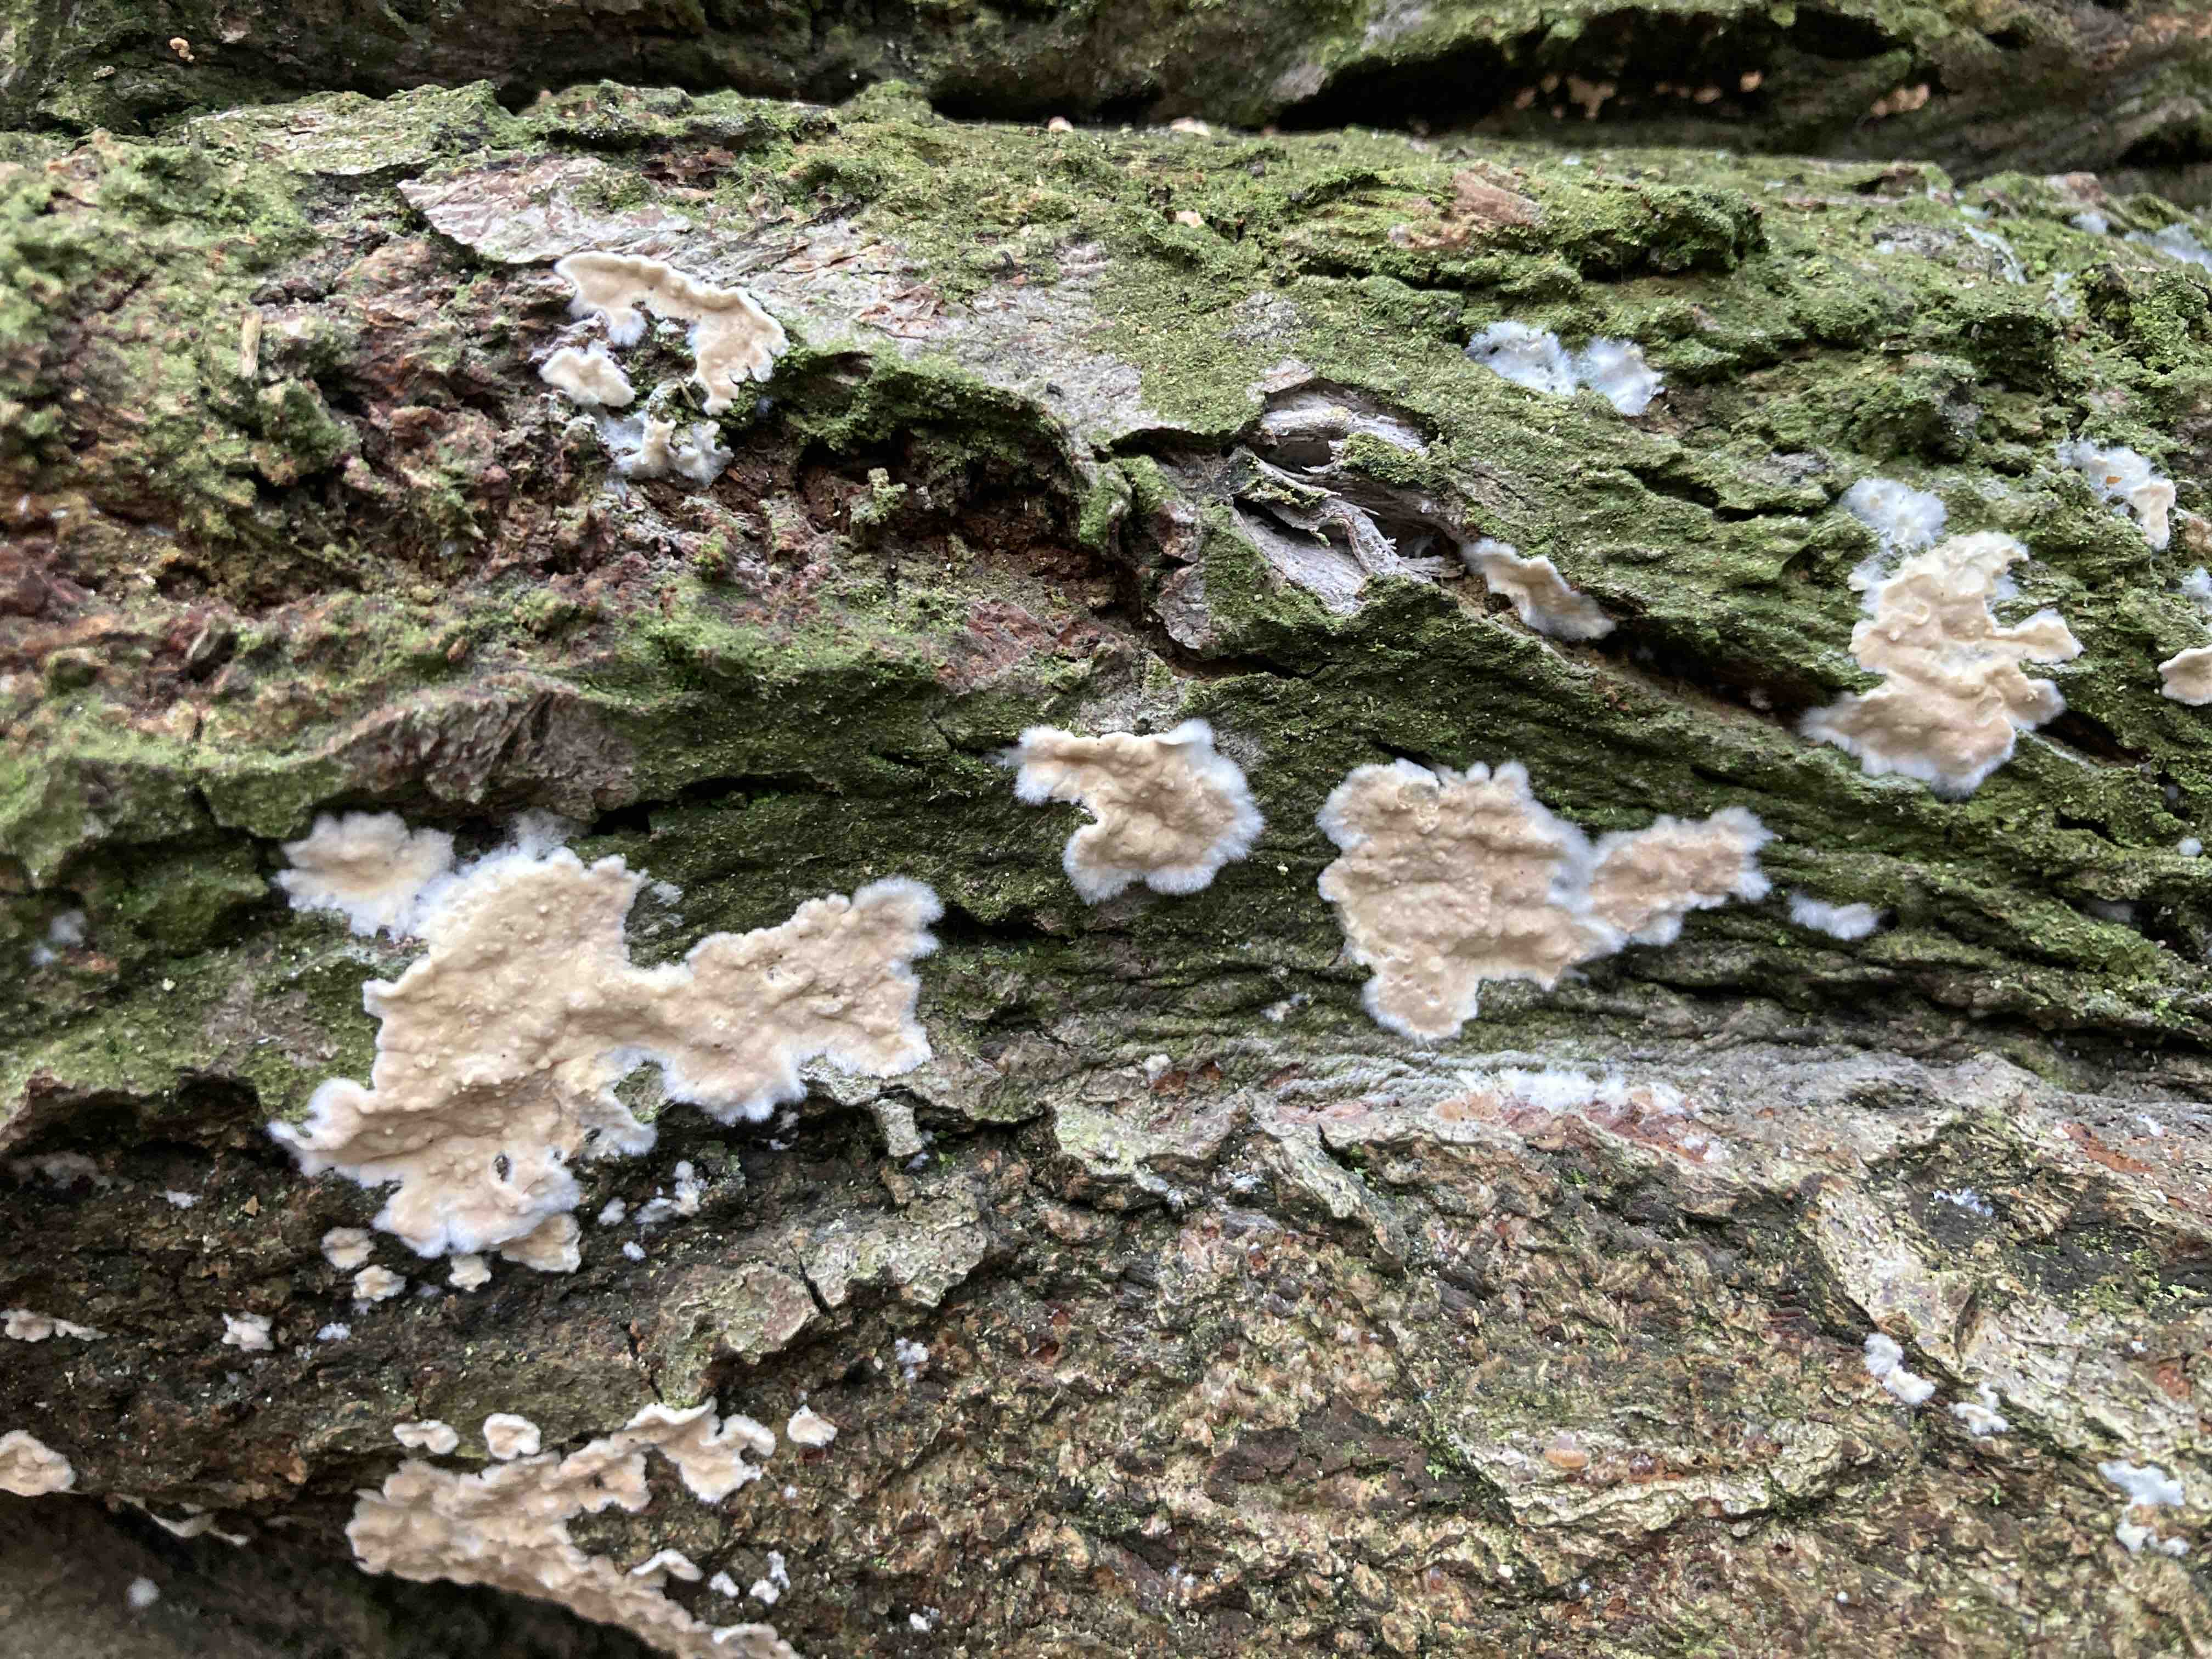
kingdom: Fungi
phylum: Basidiomycota
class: Agaricomycetes
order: Agaricales
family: Physalacriaceae
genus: Cylindrobasidium
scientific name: Cylindrobasidium evolvens
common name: sprækkehinde
